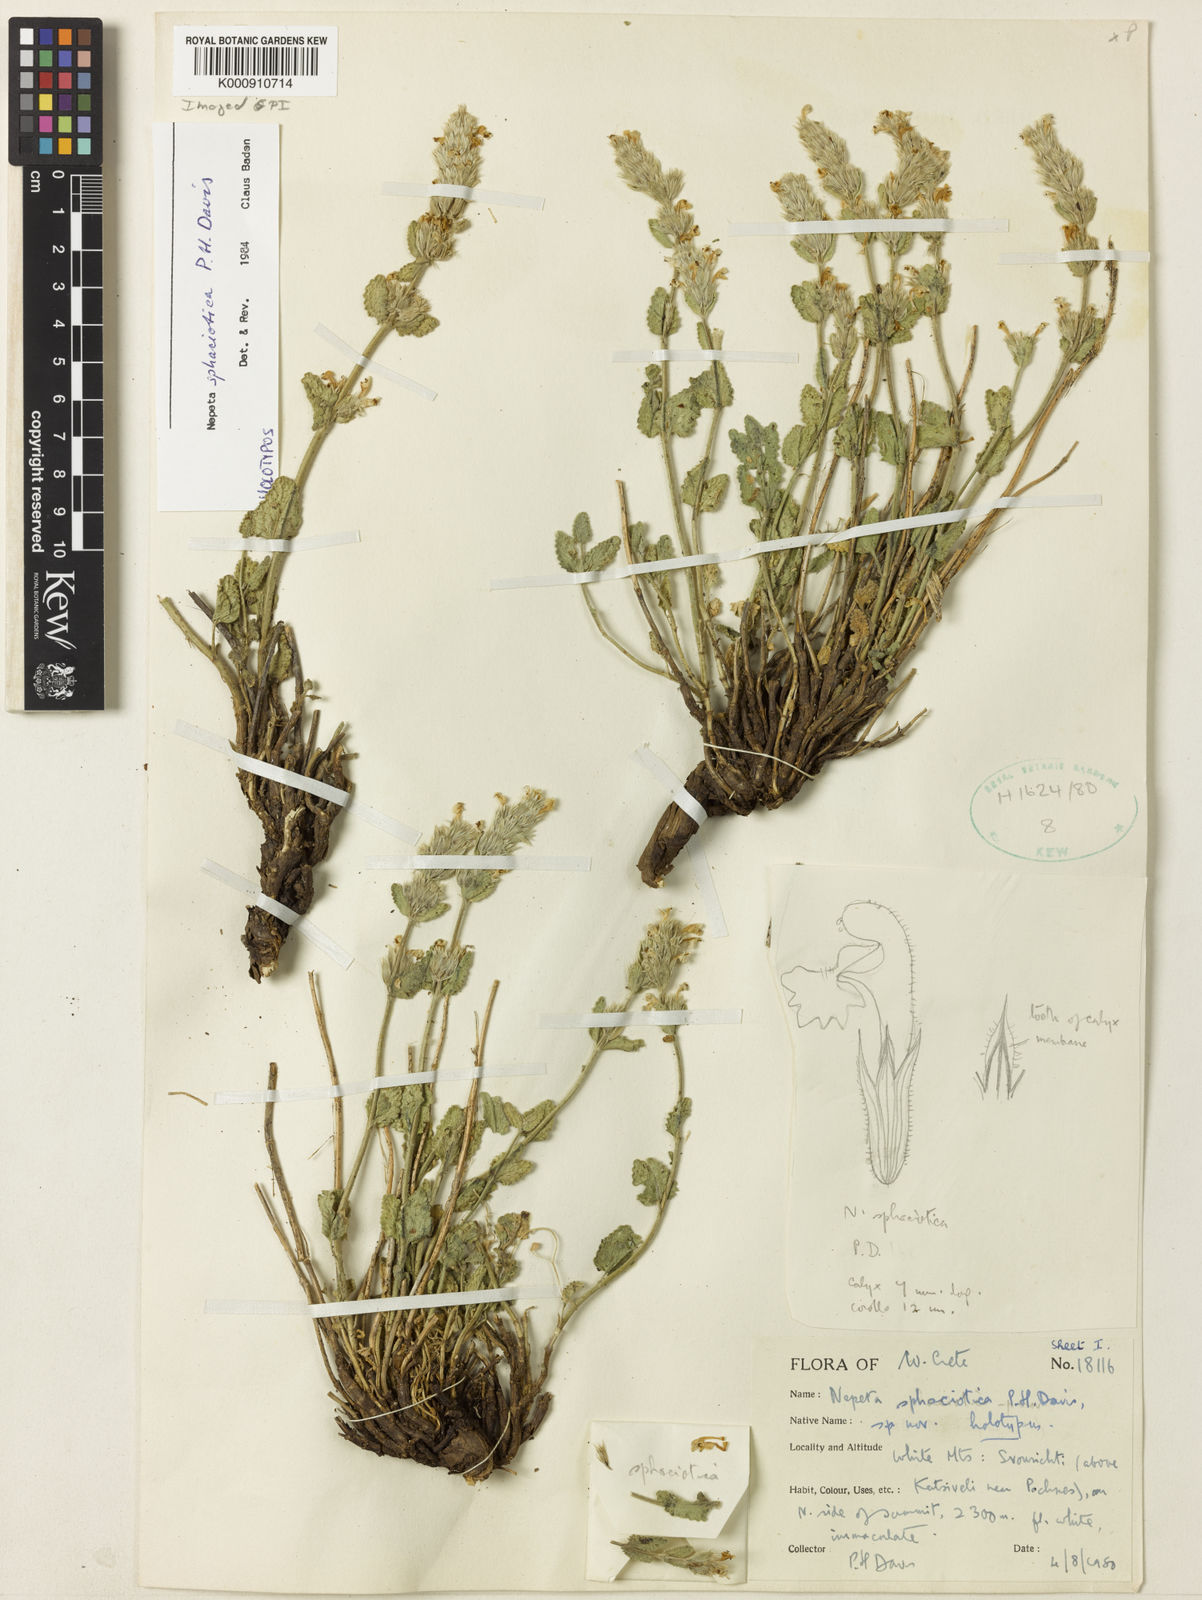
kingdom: Plantae
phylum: Tracheophyta
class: Magnoliopsida
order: Lamiales
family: Lamiaceae
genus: Nepeta
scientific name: Nepeta sphaciotica
